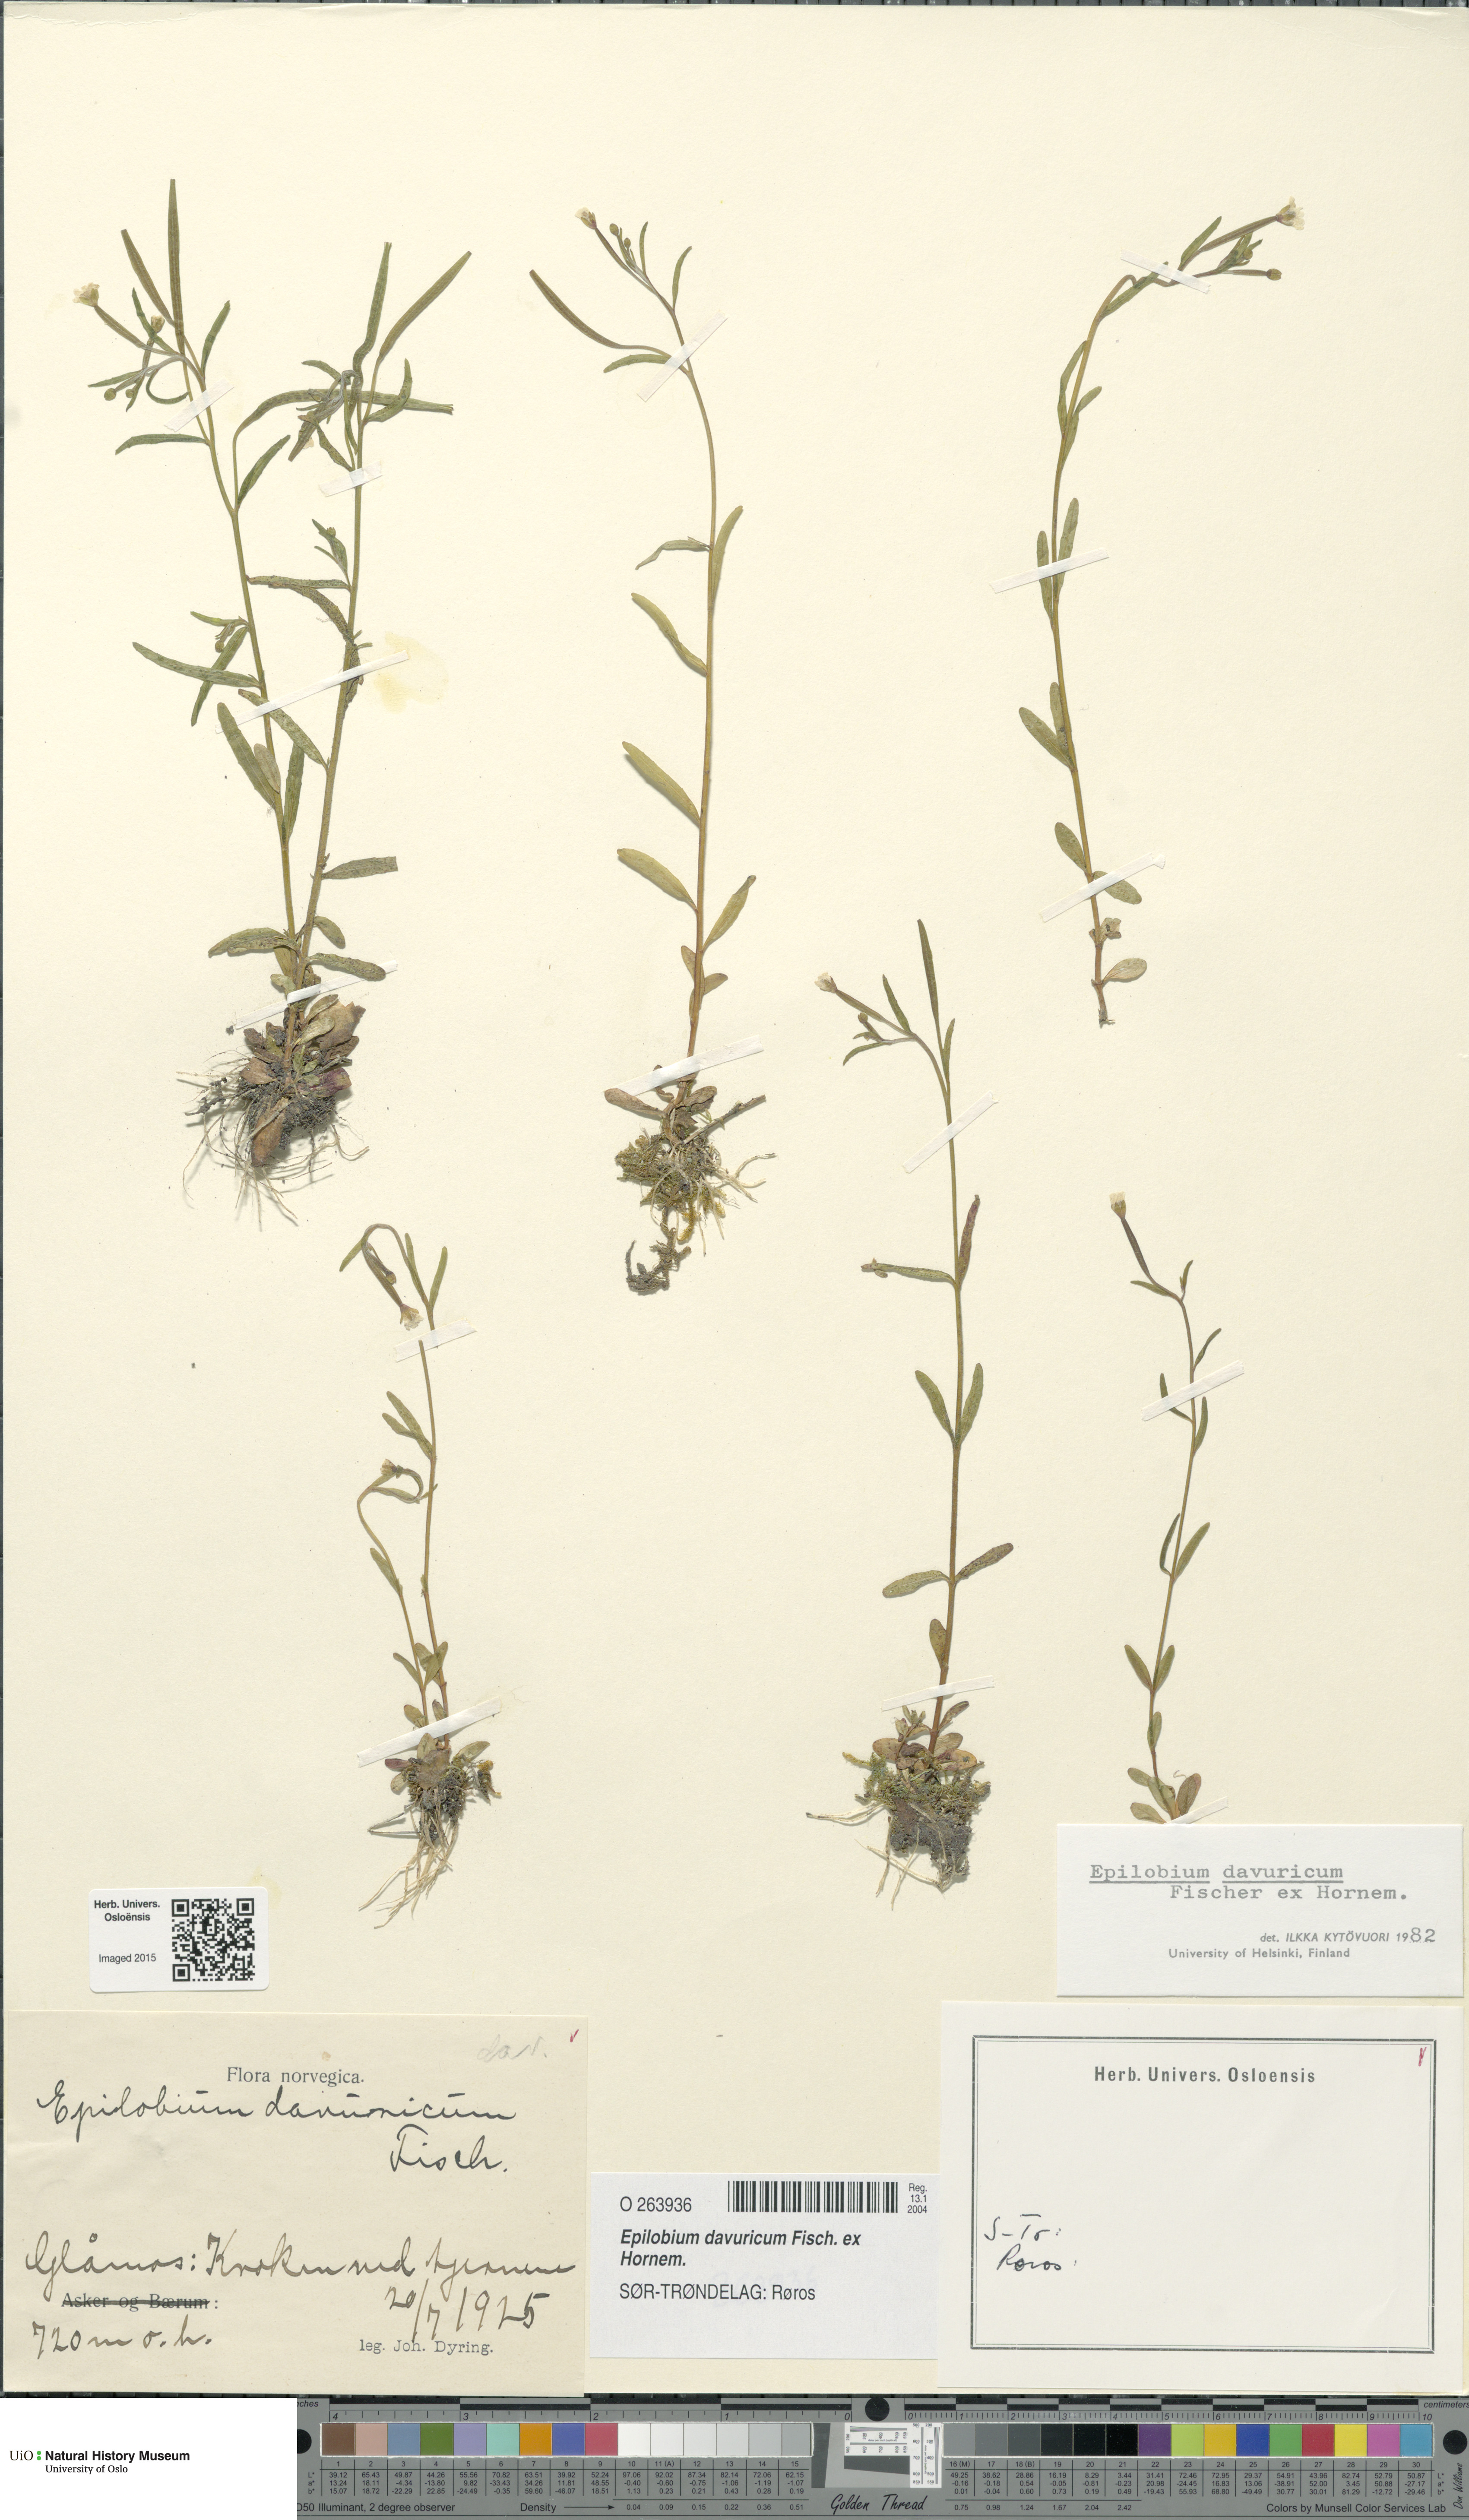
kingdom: Plantae
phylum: Tracheophyta
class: Magnoliopsida
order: Myrtales
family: Onagraceae
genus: Epilobium
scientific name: Epilobium davuricum
